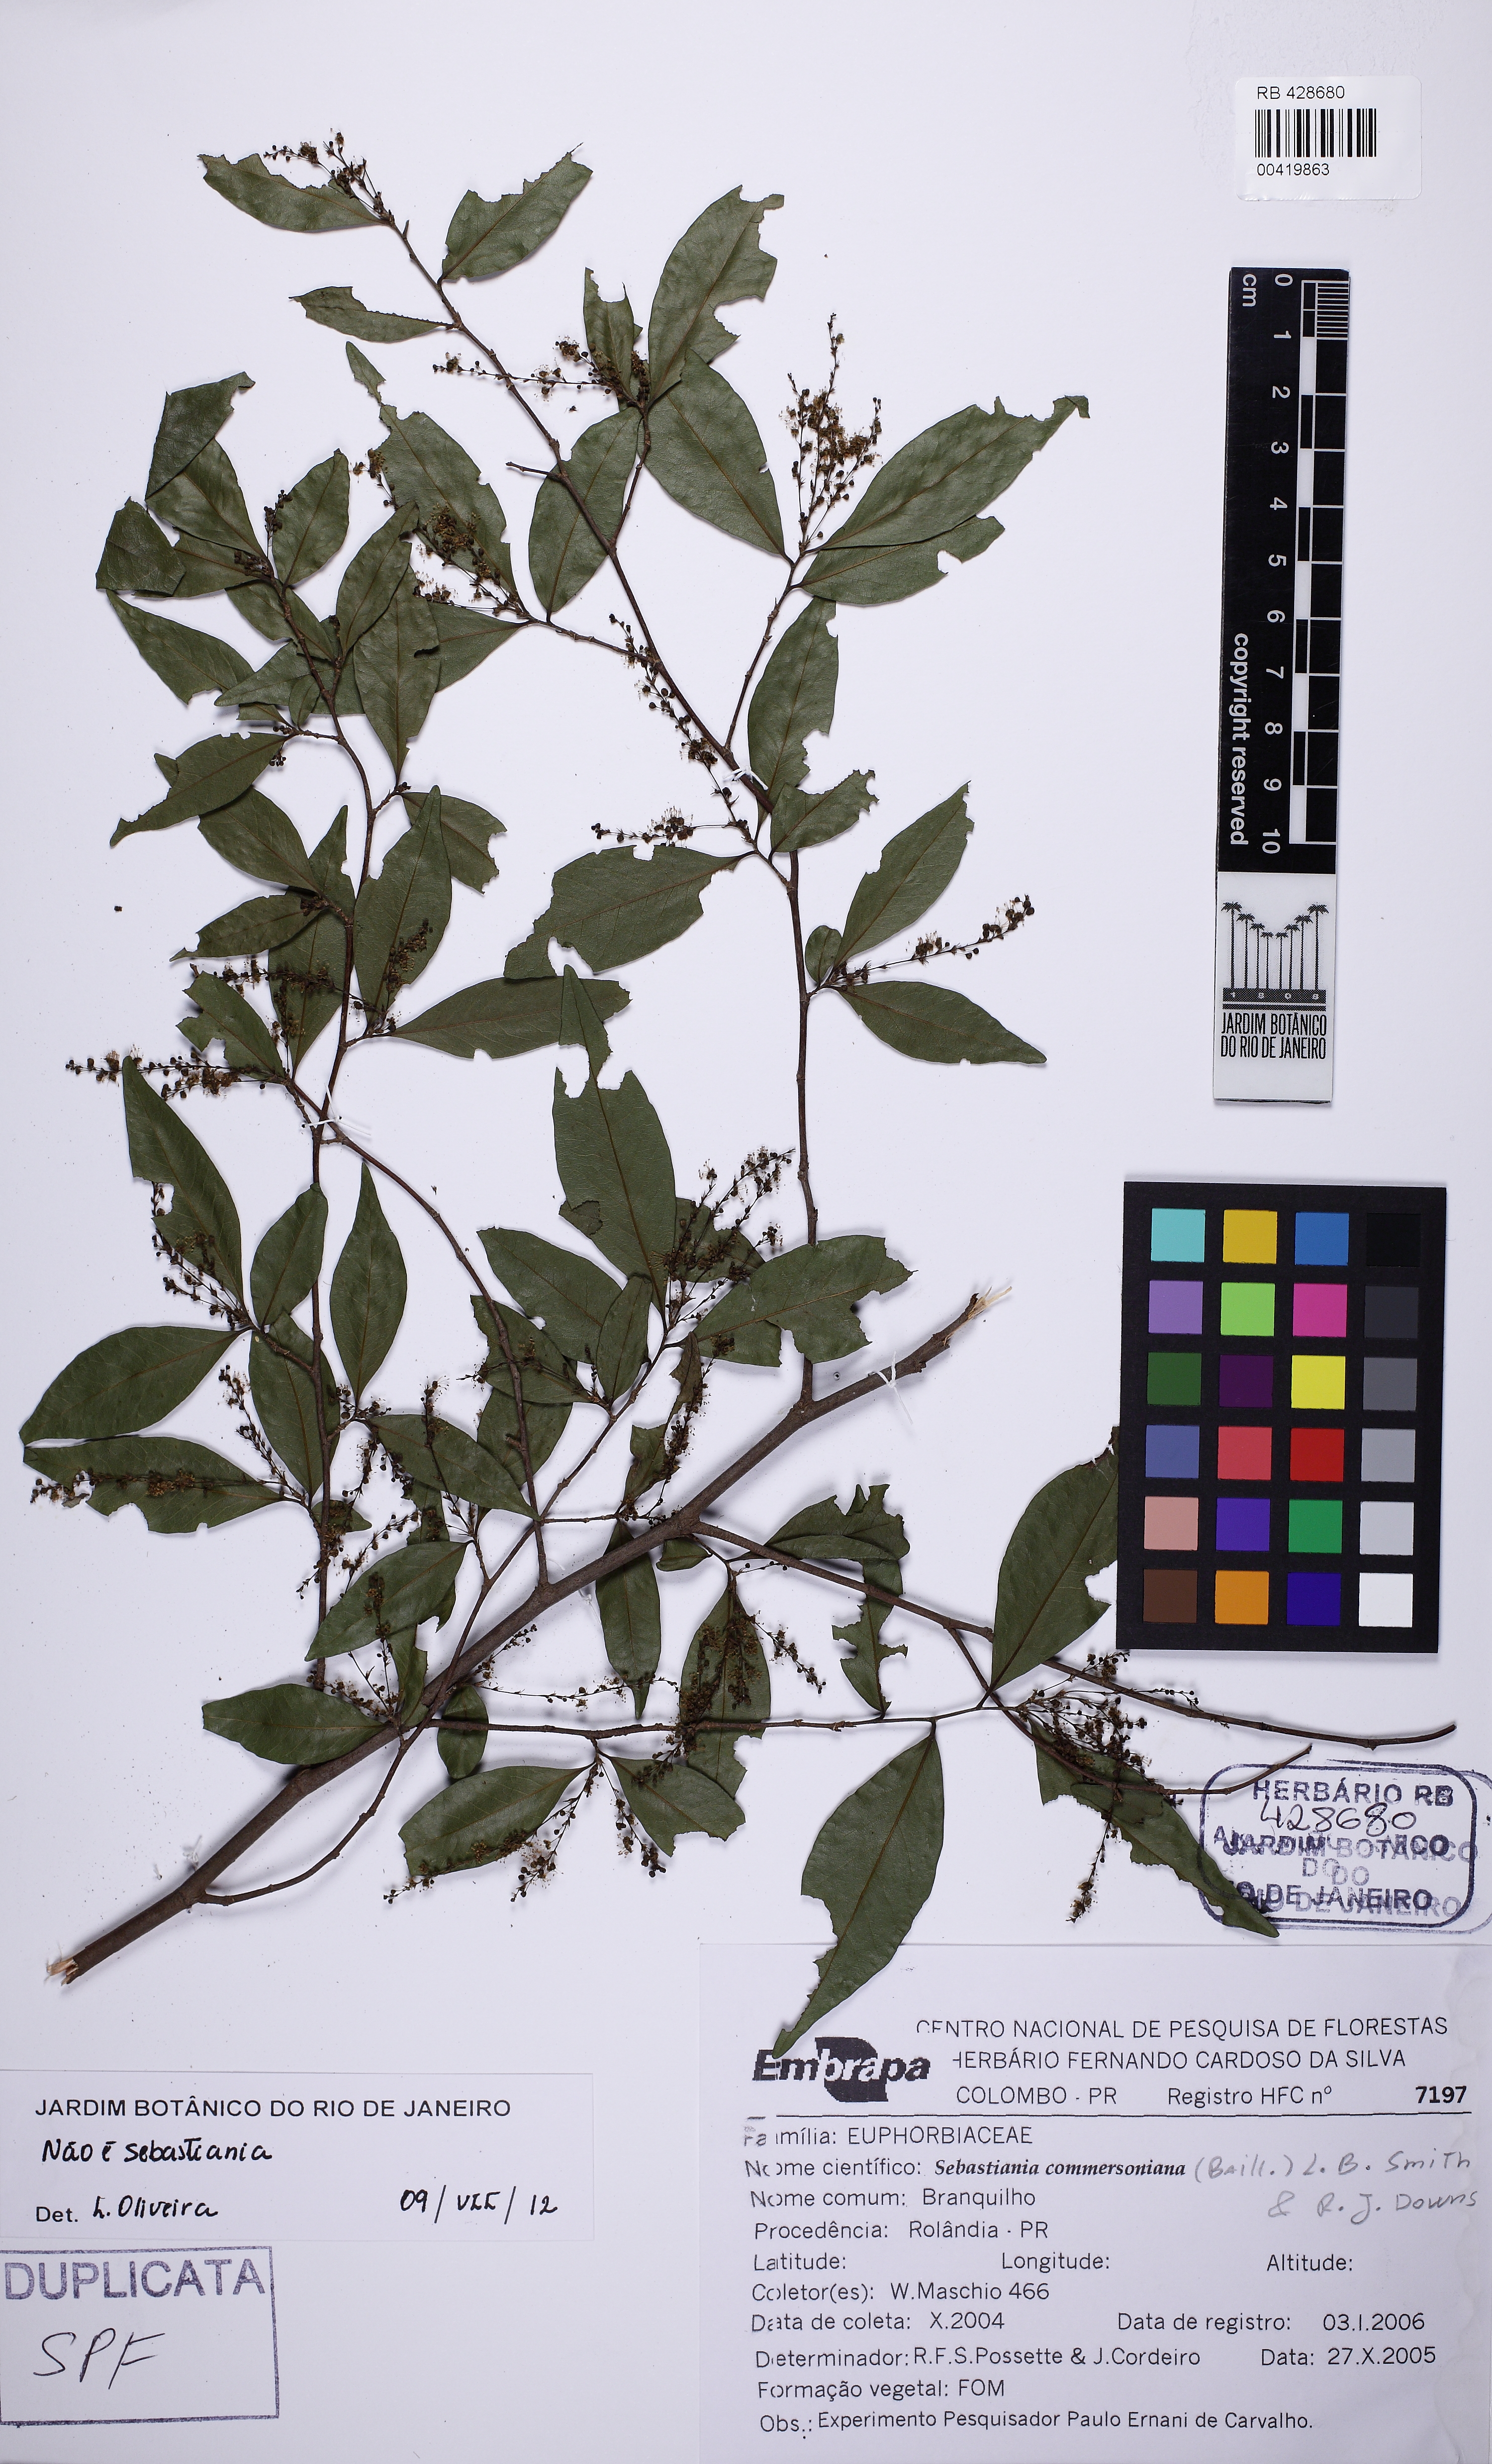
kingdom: Plantae
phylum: Tracheophyta
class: Magnoliopsida
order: Fabales
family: Polygalaceae
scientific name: Polygalaceae
